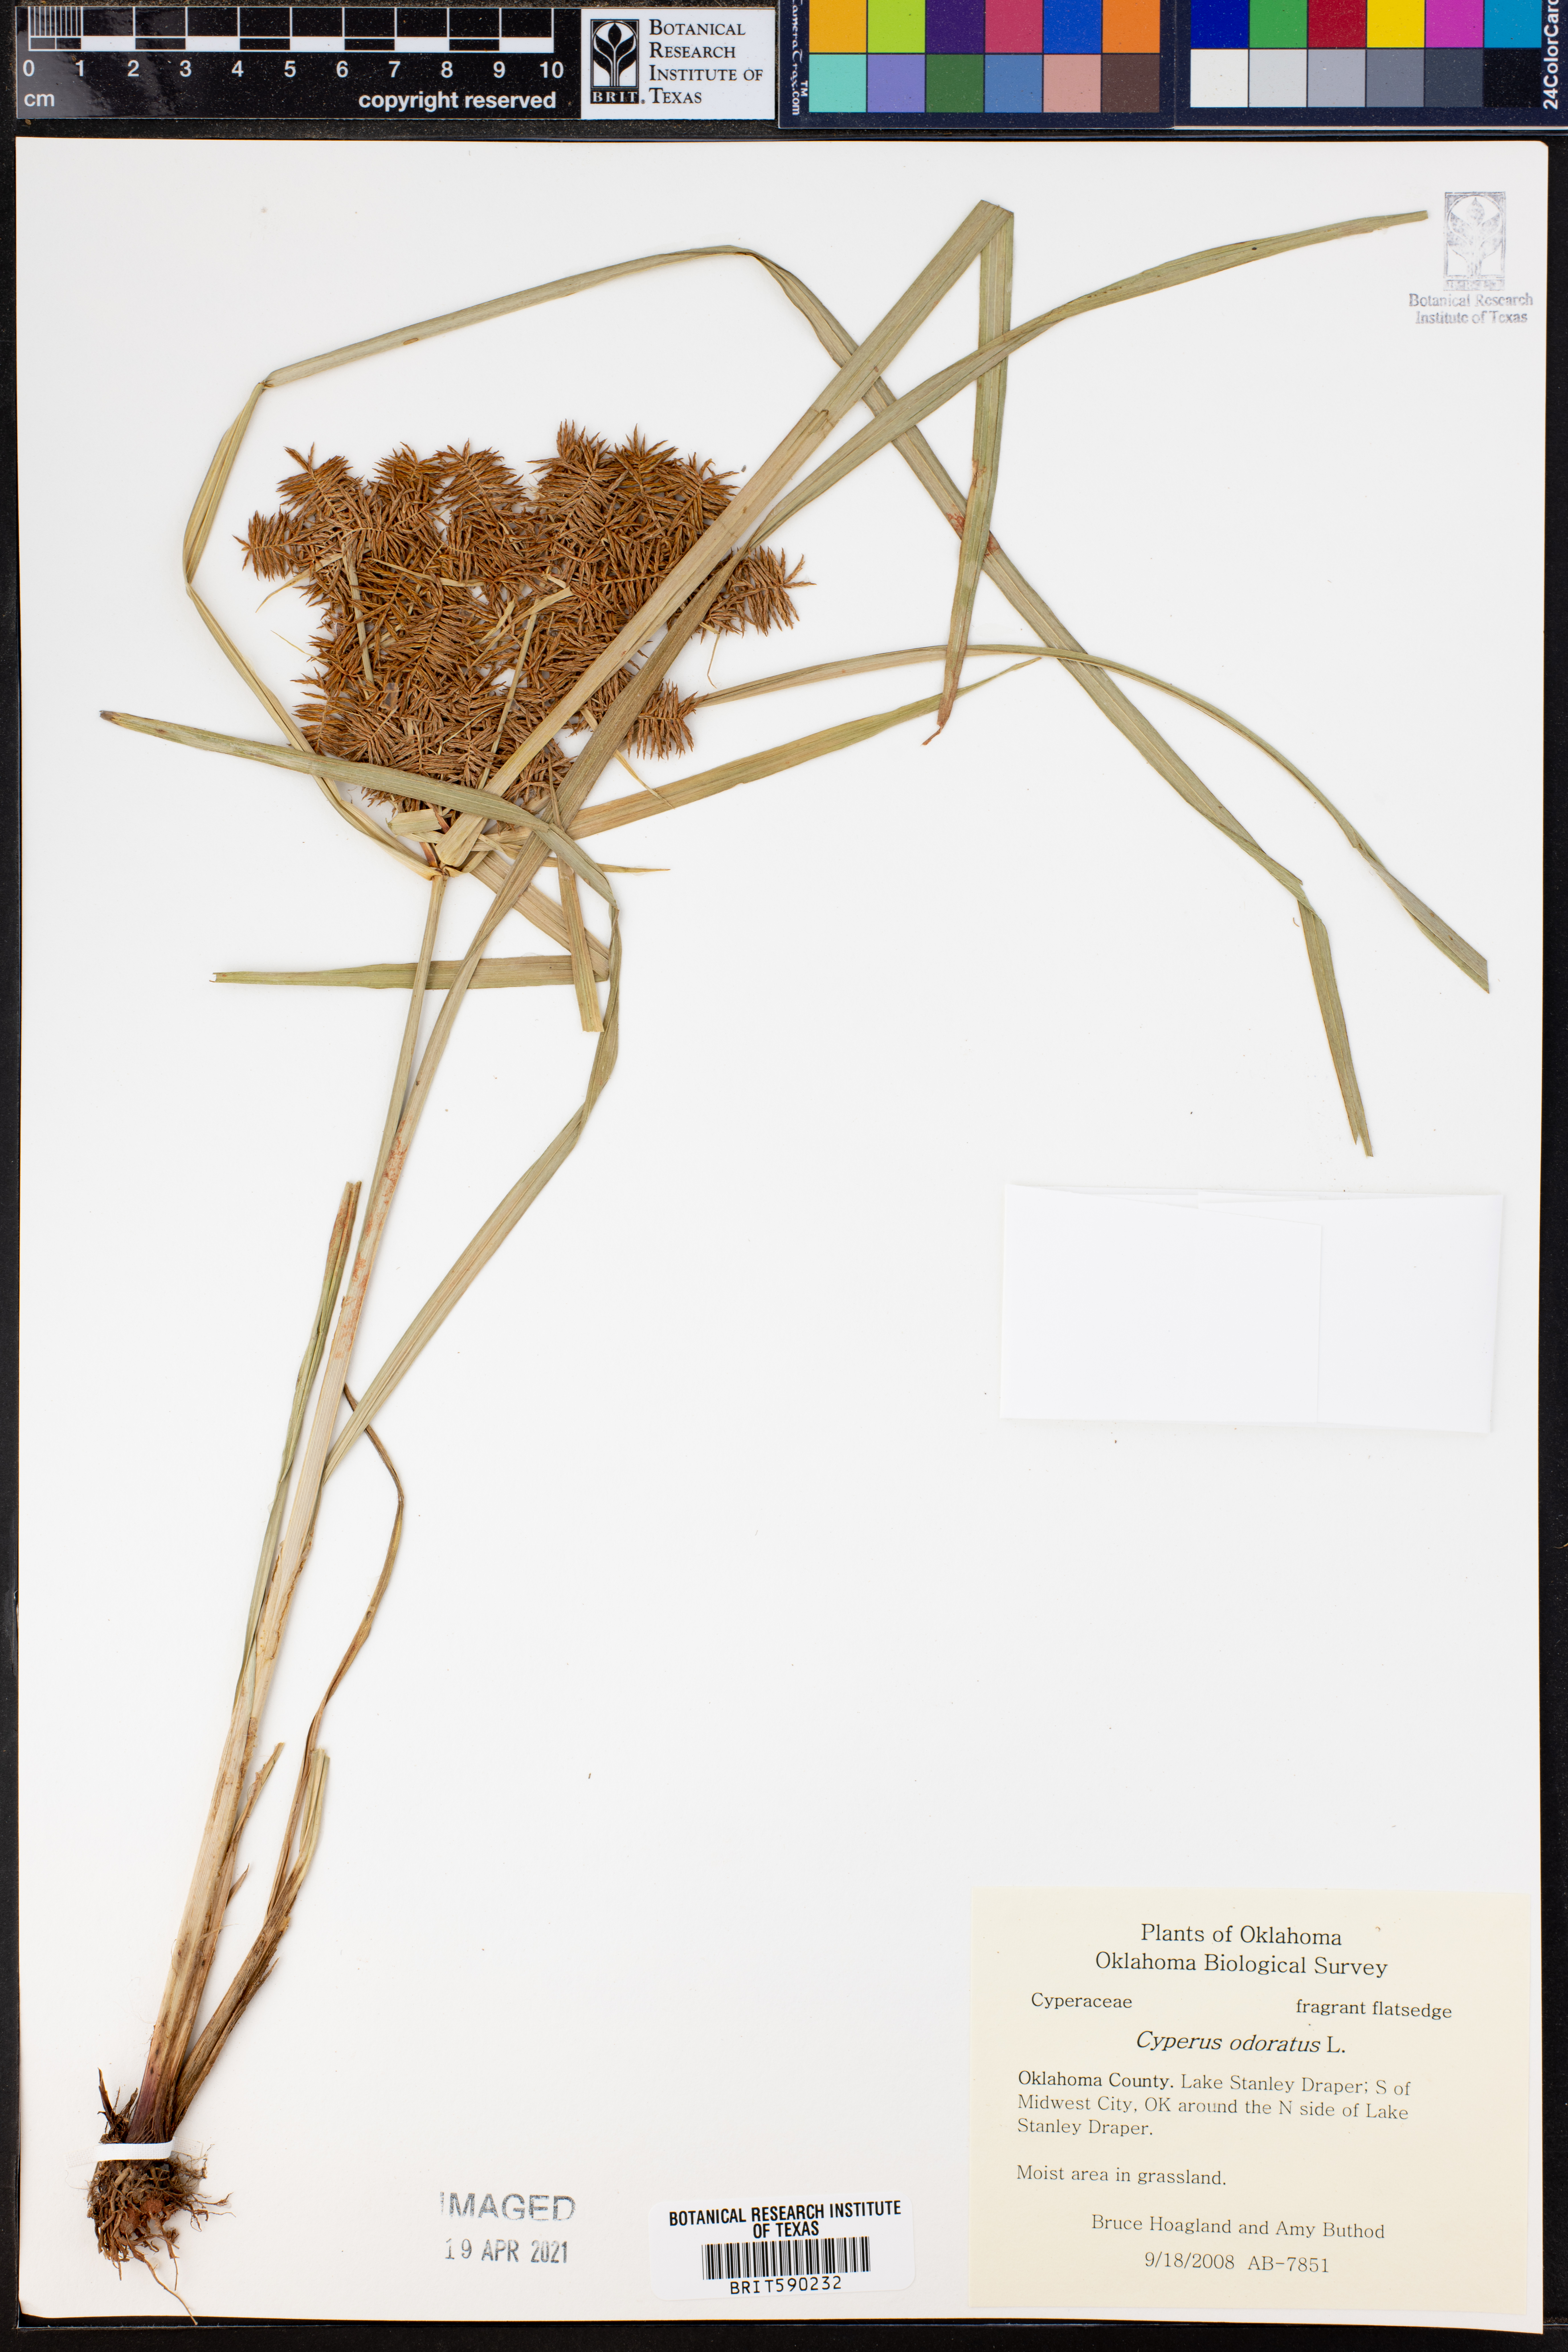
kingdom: Plantae
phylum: Tracheophyta
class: Liliopsida
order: Poales
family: Cyperaceae
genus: Cyperus
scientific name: Cyperus odoratus
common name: Fragrant flatsedge
